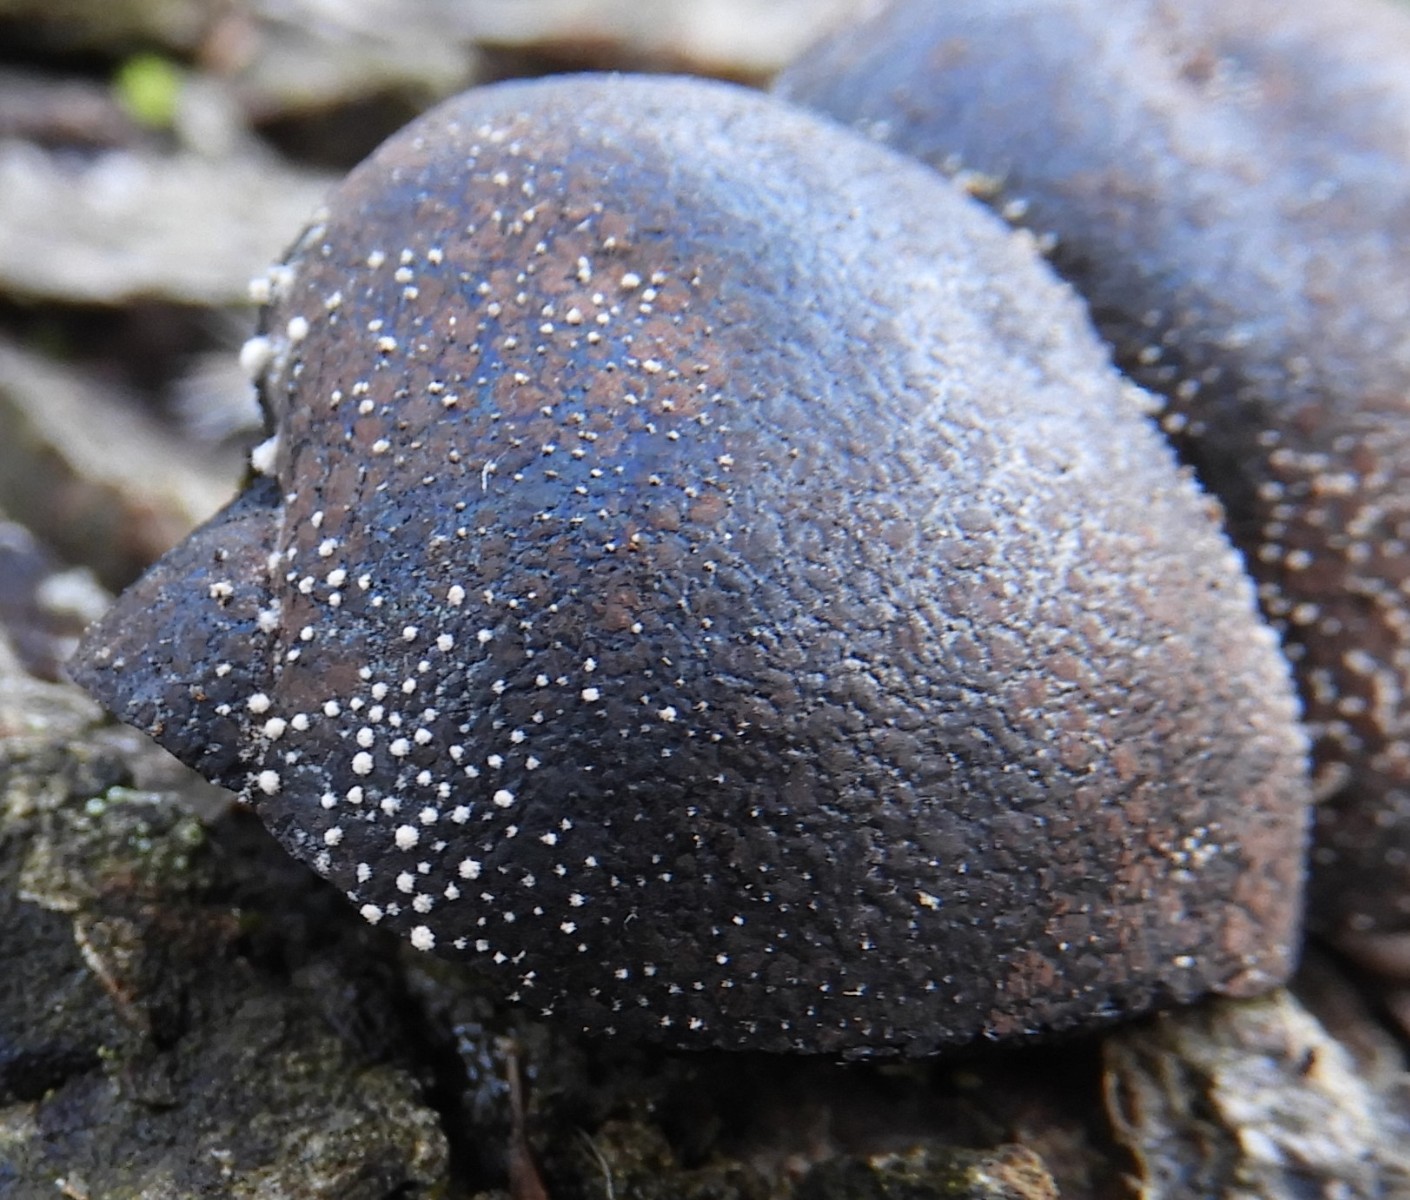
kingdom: Fungi
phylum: Ascomycota
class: Sordariomycetes
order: Xylariales
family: Hypoxylaceae
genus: Daldinia
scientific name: Daldinia pyrenaica
